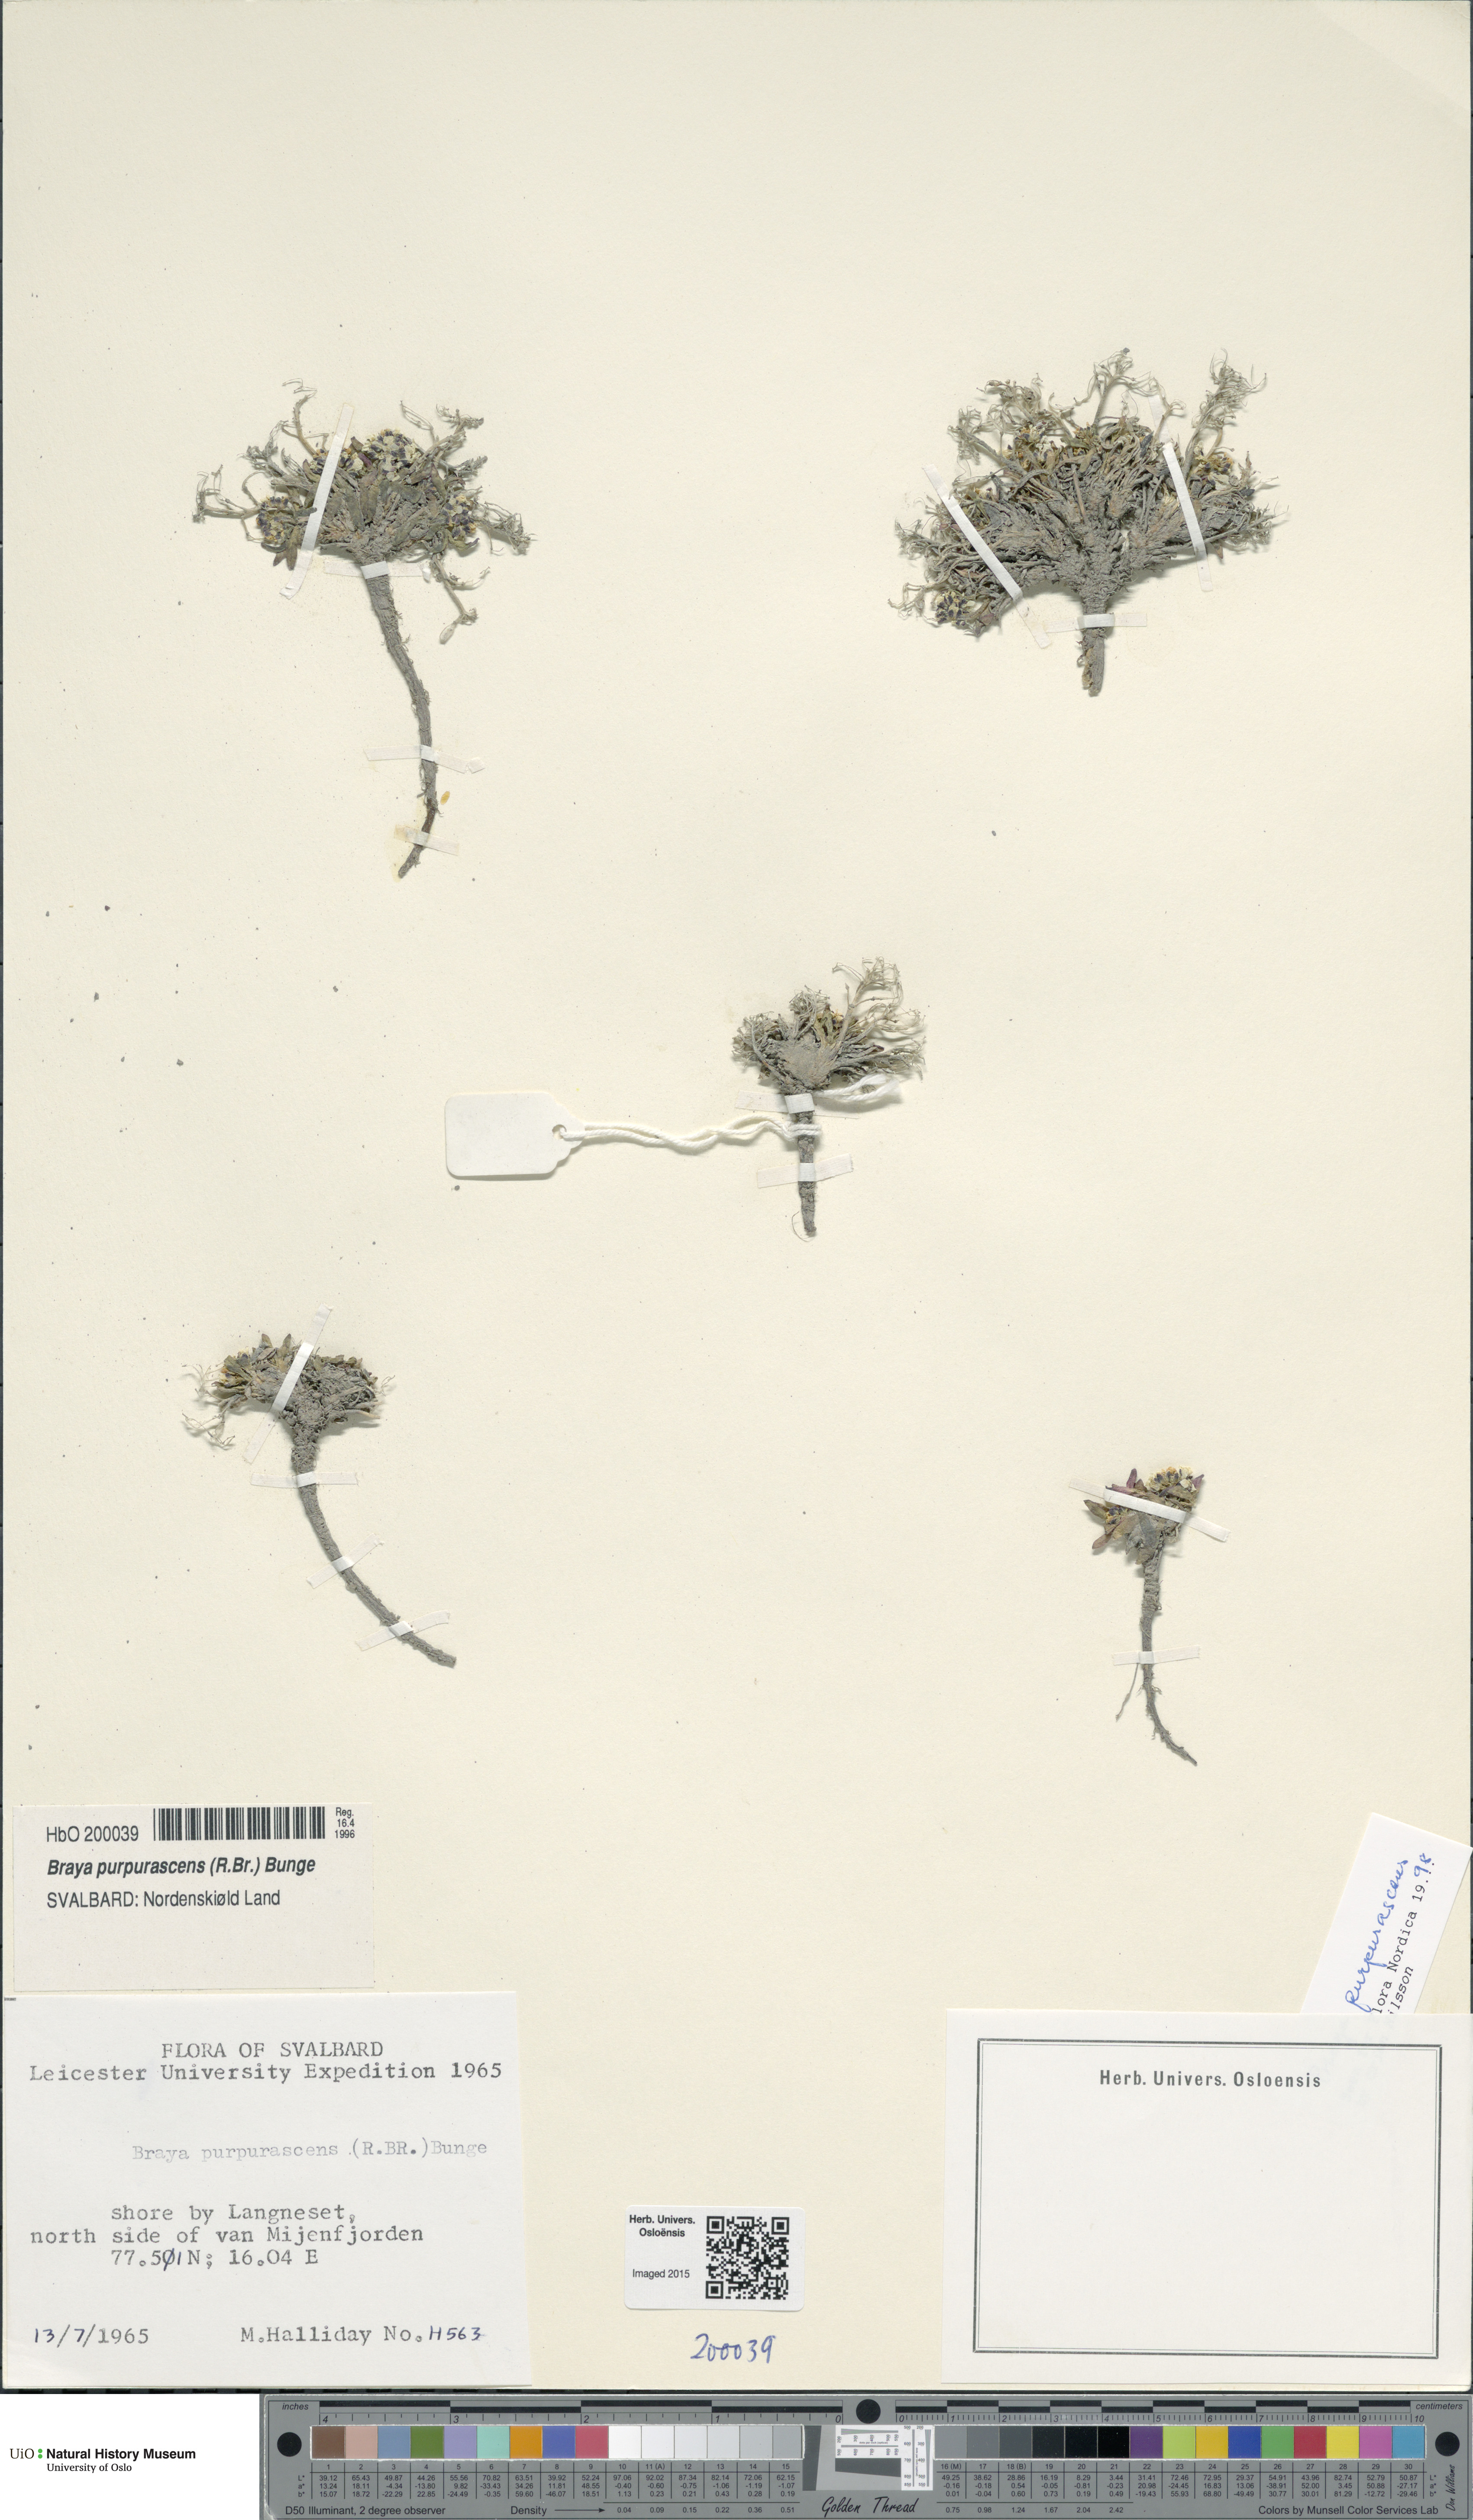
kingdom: Plantae
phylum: Tracheophyta
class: Magnoliopsida
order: Brassicales
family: Brassicaceae
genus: Braya
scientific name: Braya purpurascens
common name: Alpine braya
